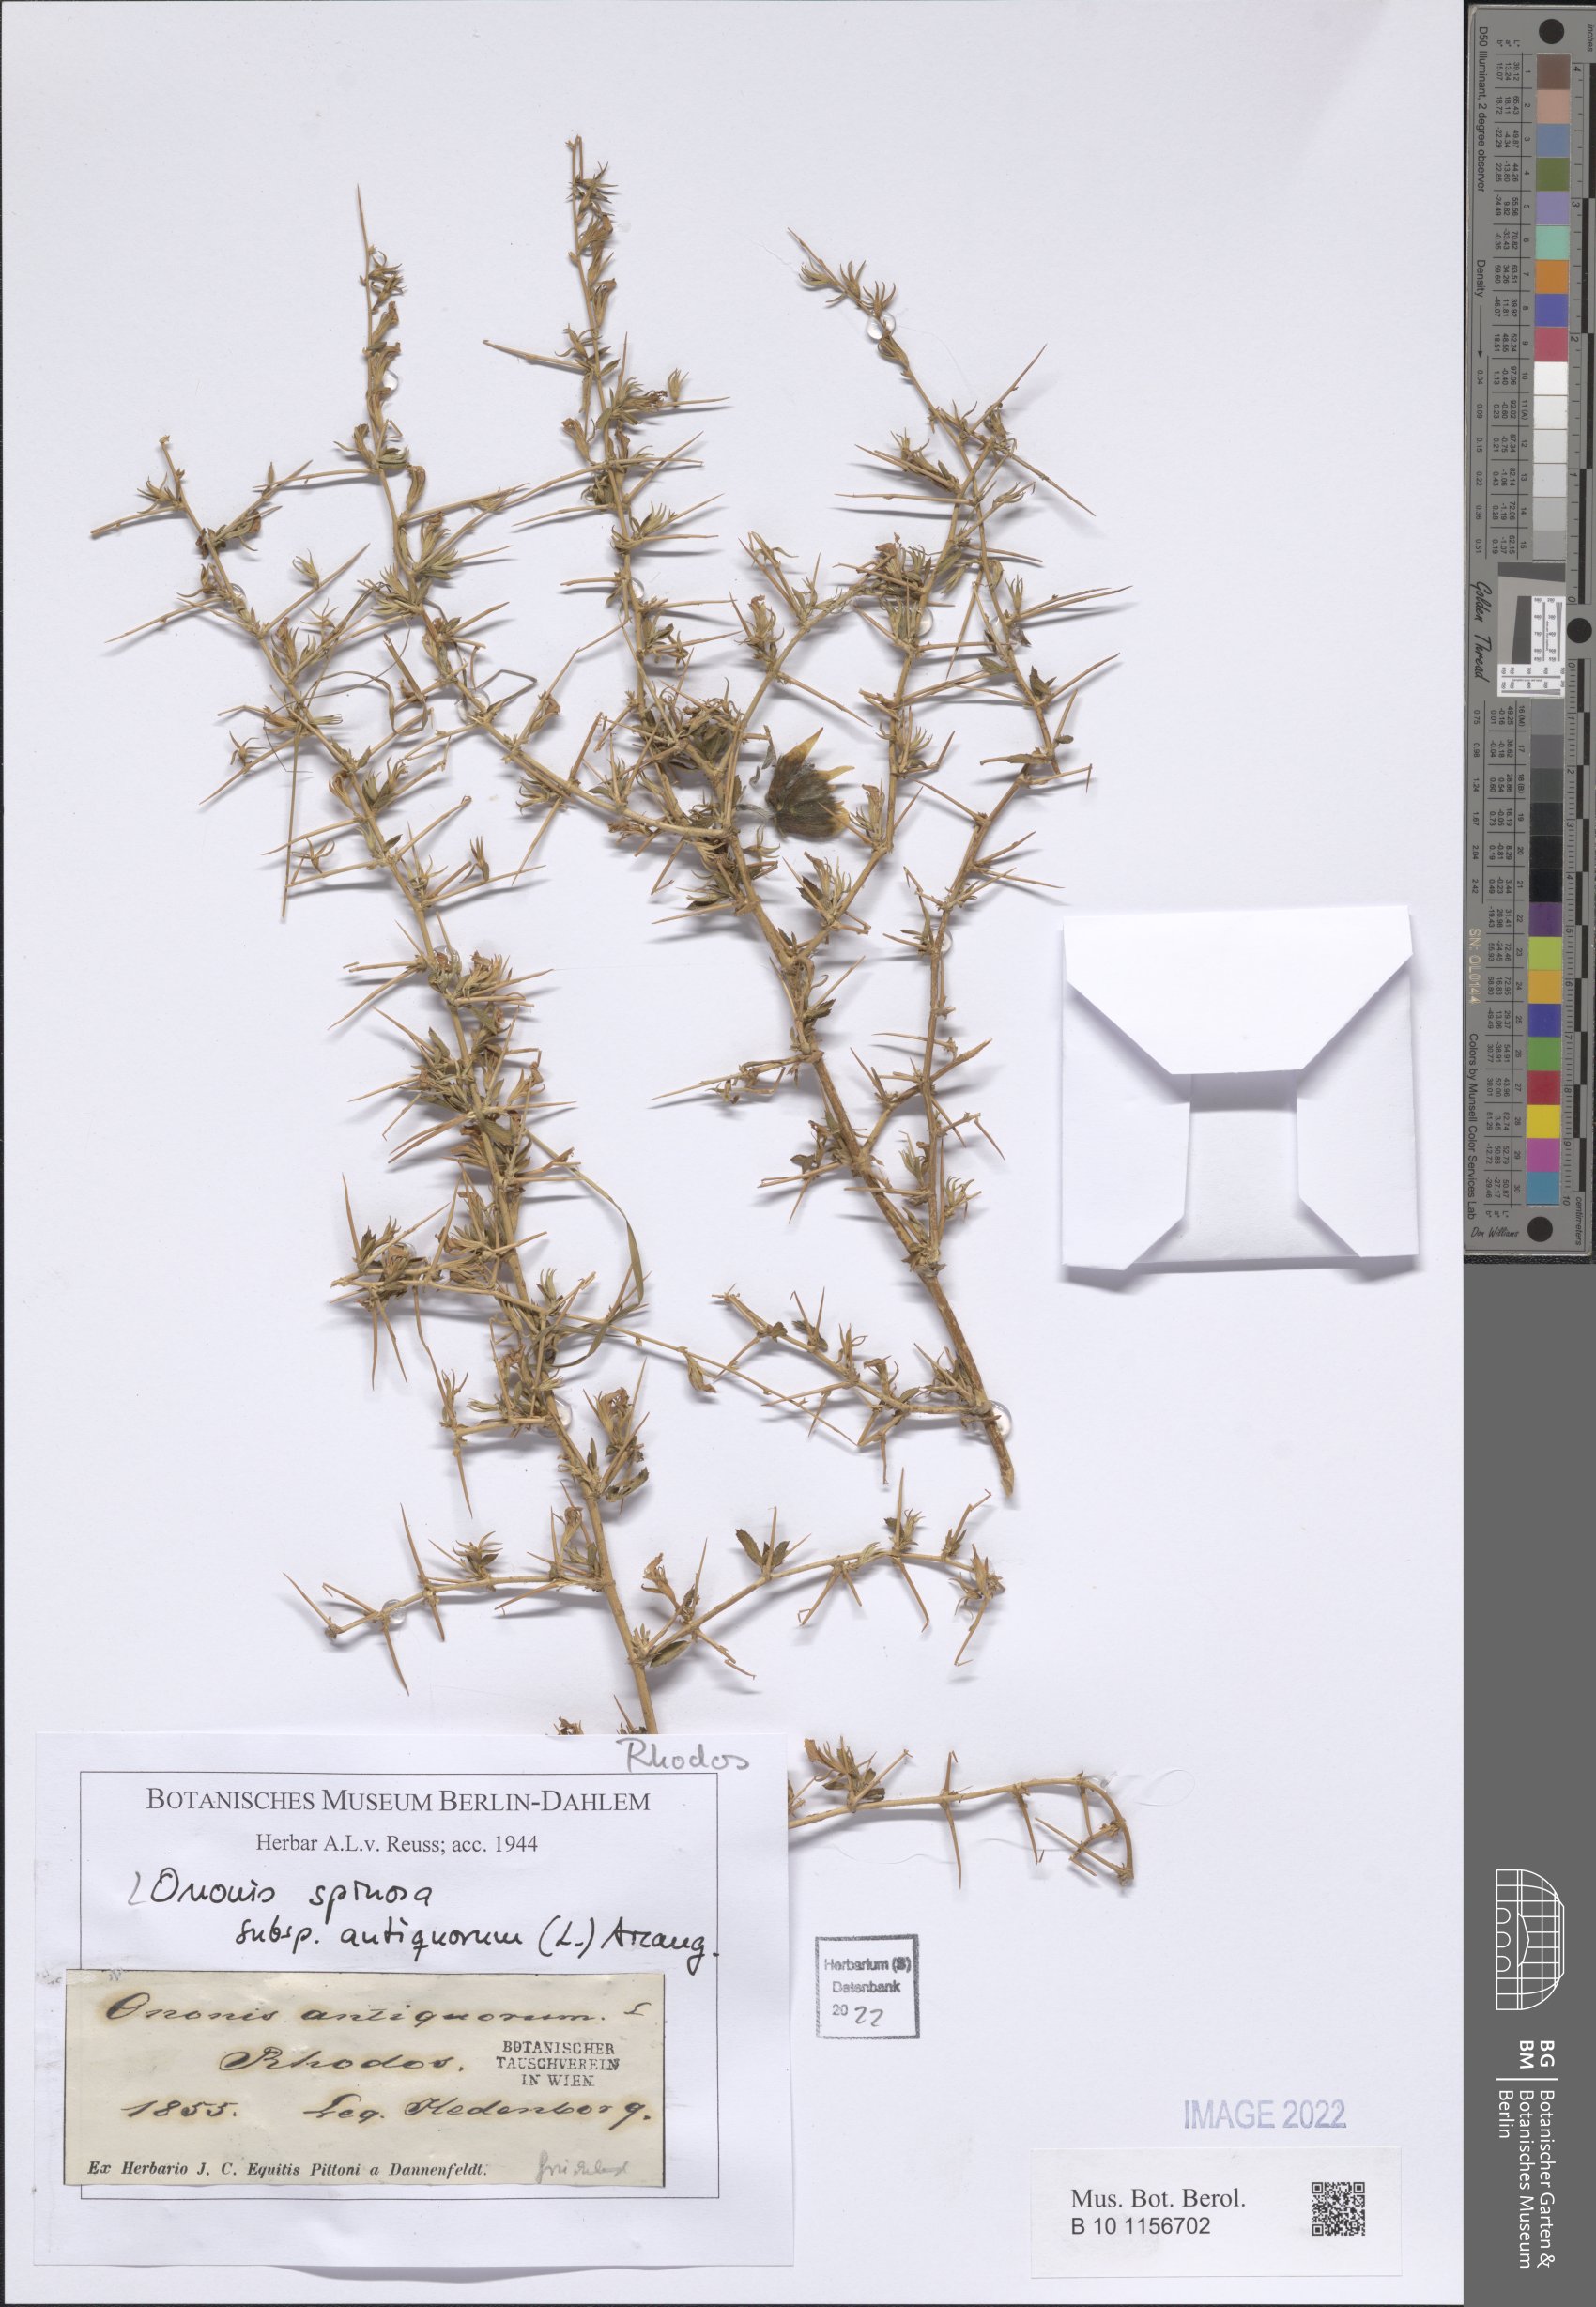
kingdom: Plantae
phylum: Tracheophyta
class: Magnoliopsida
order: Fabales
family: Fabaceae
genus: Ononis
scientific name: Ononis spinosa
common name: Spiny restharrow
